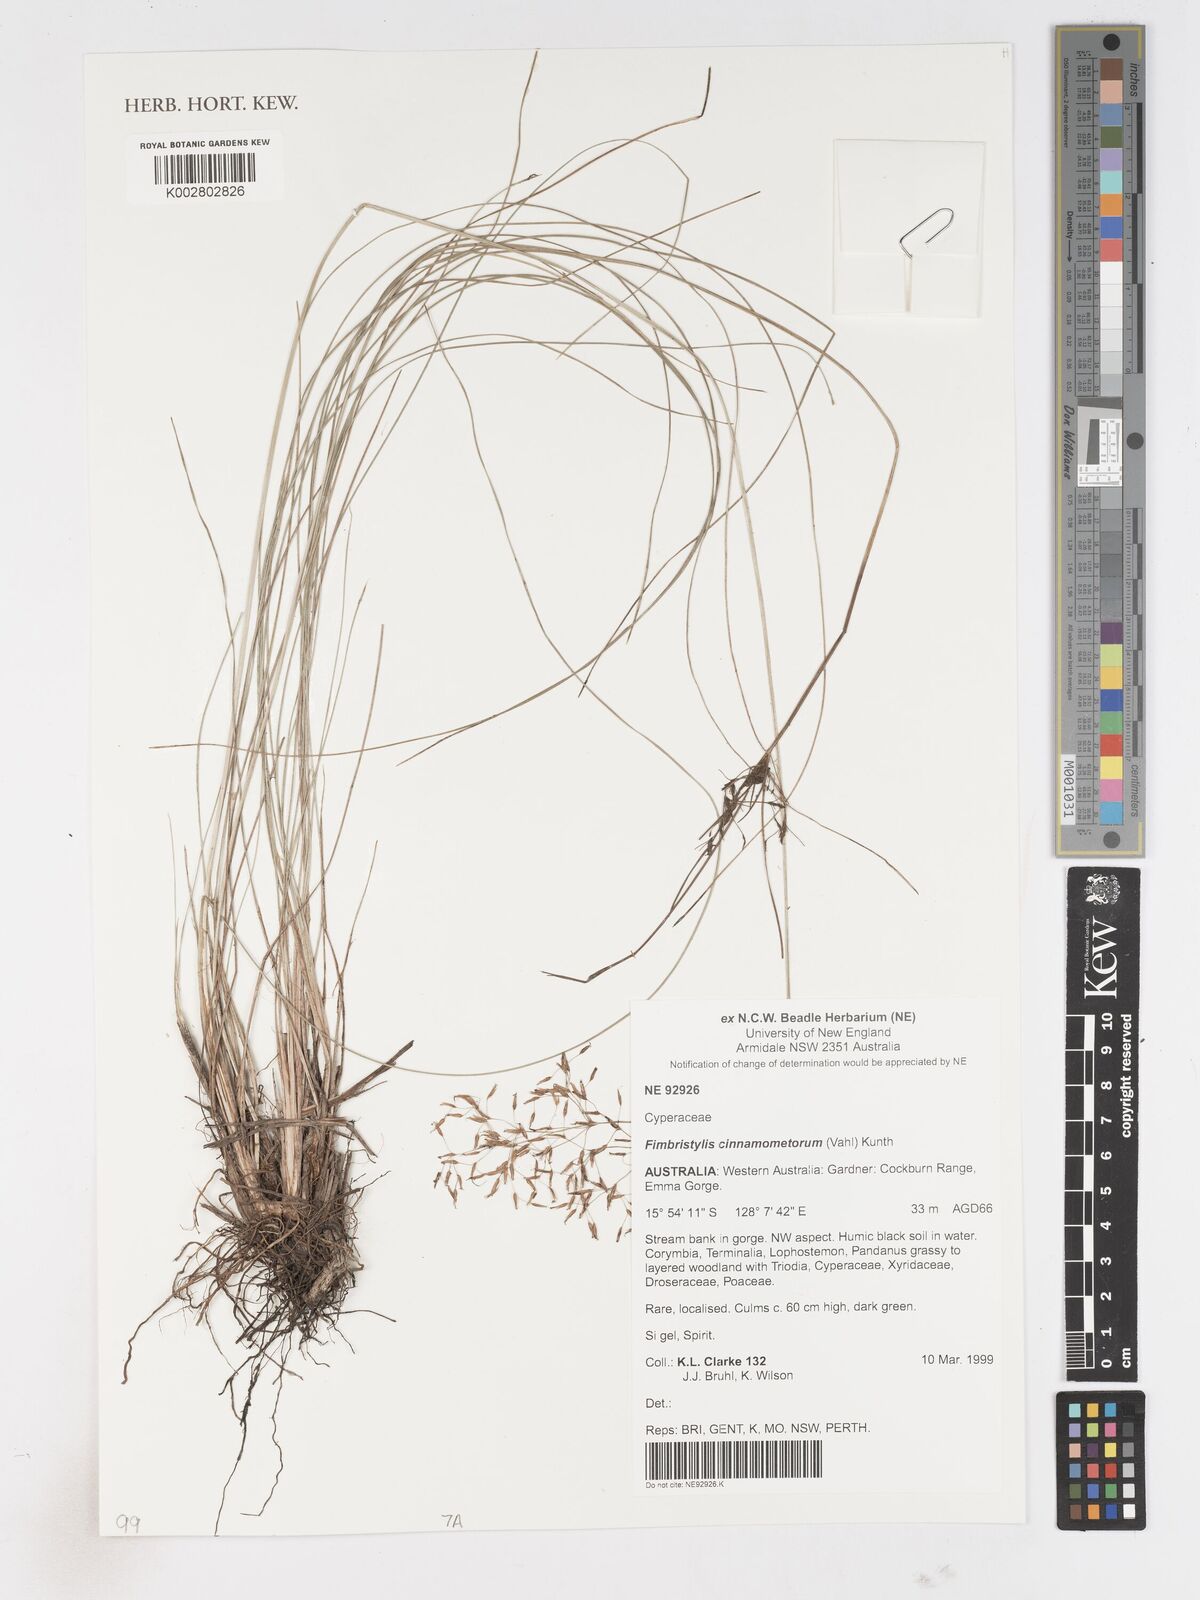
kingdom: Plantae
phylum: Tracheophyta
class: Liliopsida
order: Poales
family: Cyperaceae
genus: Fimbristylis
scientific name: Fimbristylis cinnamometorum
